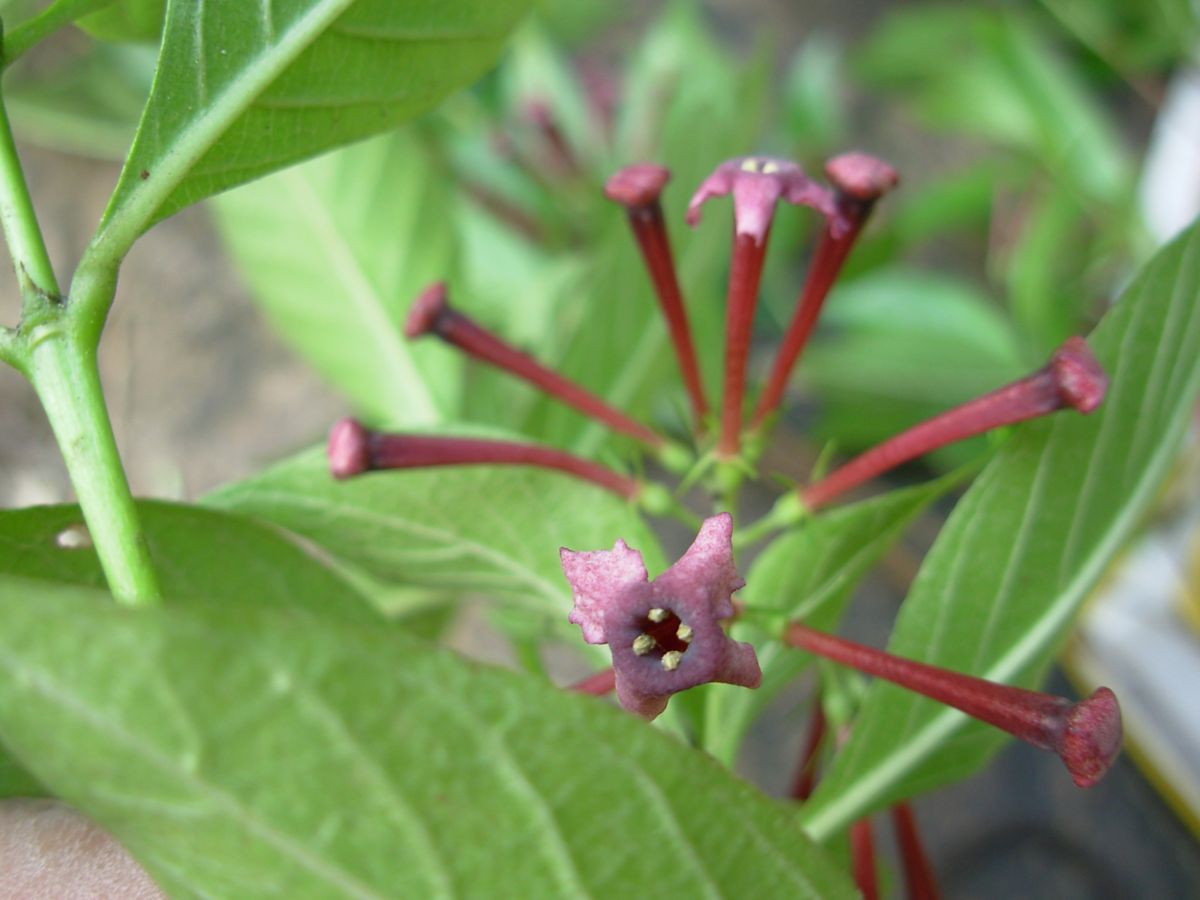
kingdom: Plantae
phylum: Tracheophyta
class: Magnoliopsida
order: Gentianales
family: Rubiaceae
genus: Arachnothryx
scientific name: Arachnothryx jurgensenii
